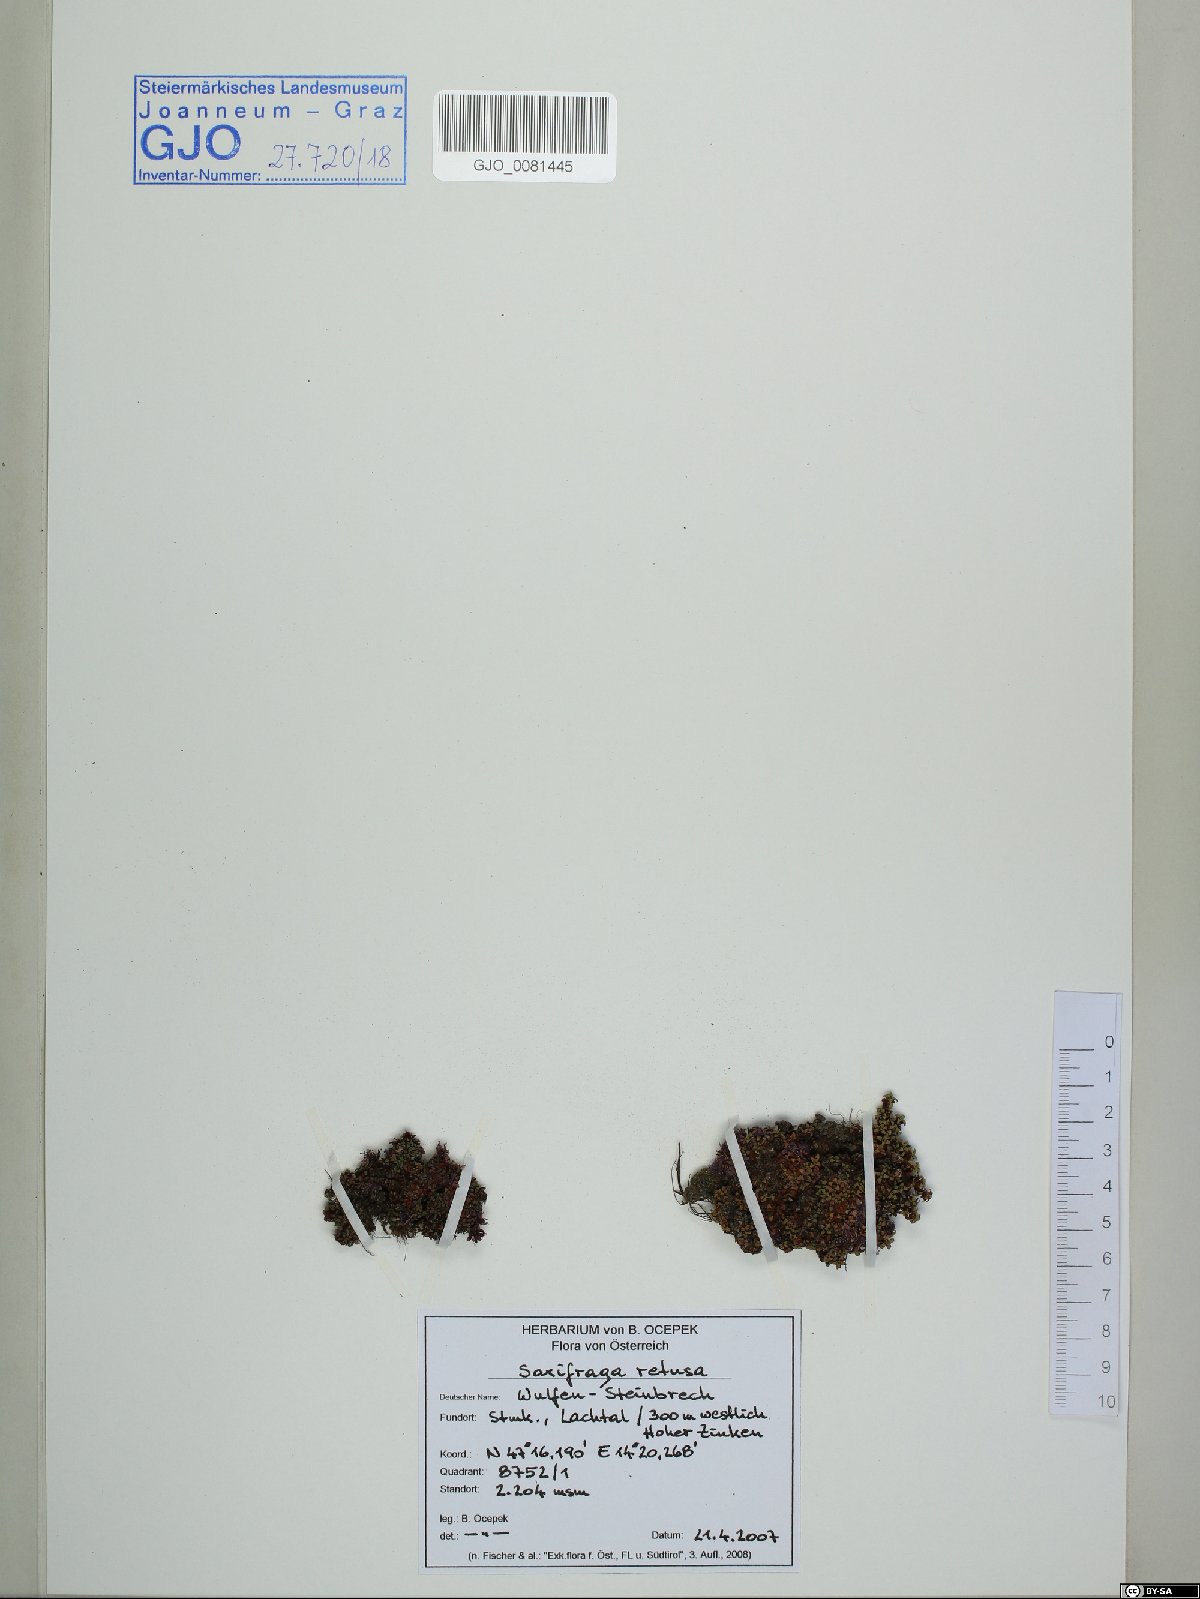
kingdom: Plantae
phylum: Tracheophyta
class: Magnoliopsida
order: Saxifragales
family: Saxifragaceae
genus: Saxifraga
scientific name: Saxifraga retusa
